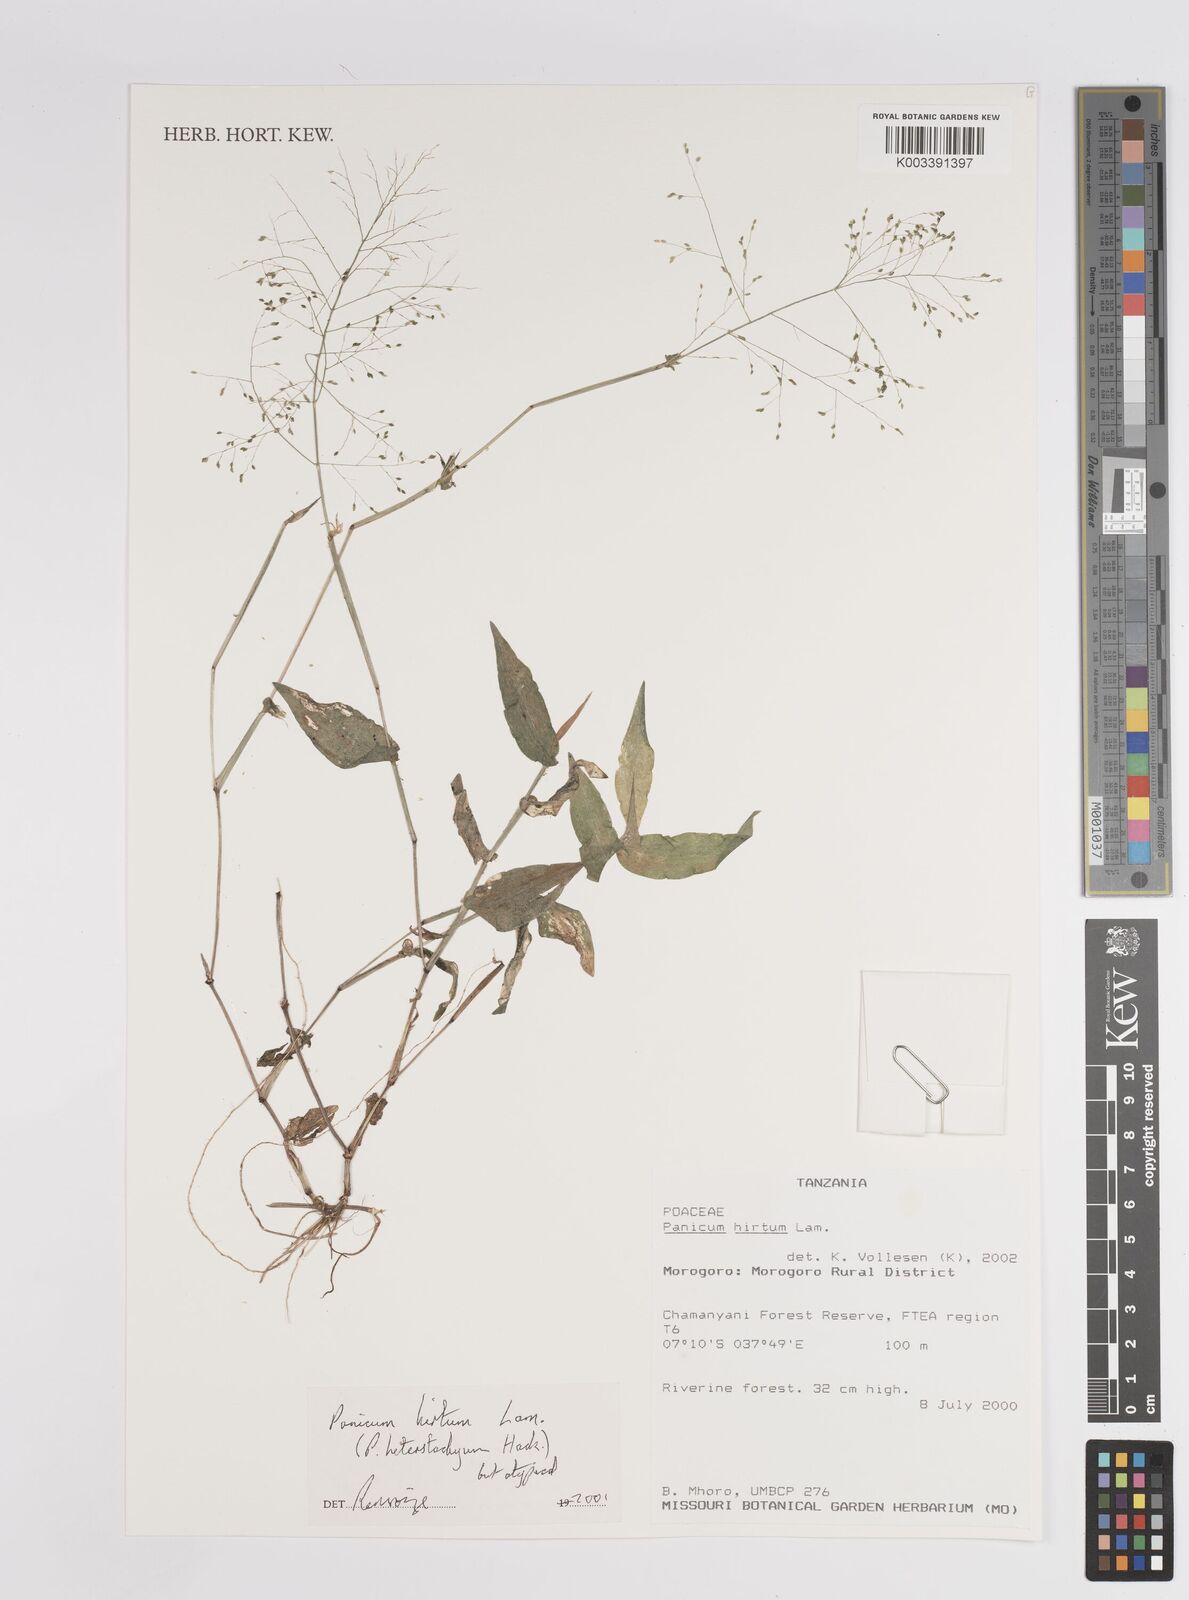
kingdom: Plantae
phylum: Tracheophyta
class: Liliopsida
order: Poales
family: Poaceae
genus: Panicum
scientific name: Panicum hirtum
